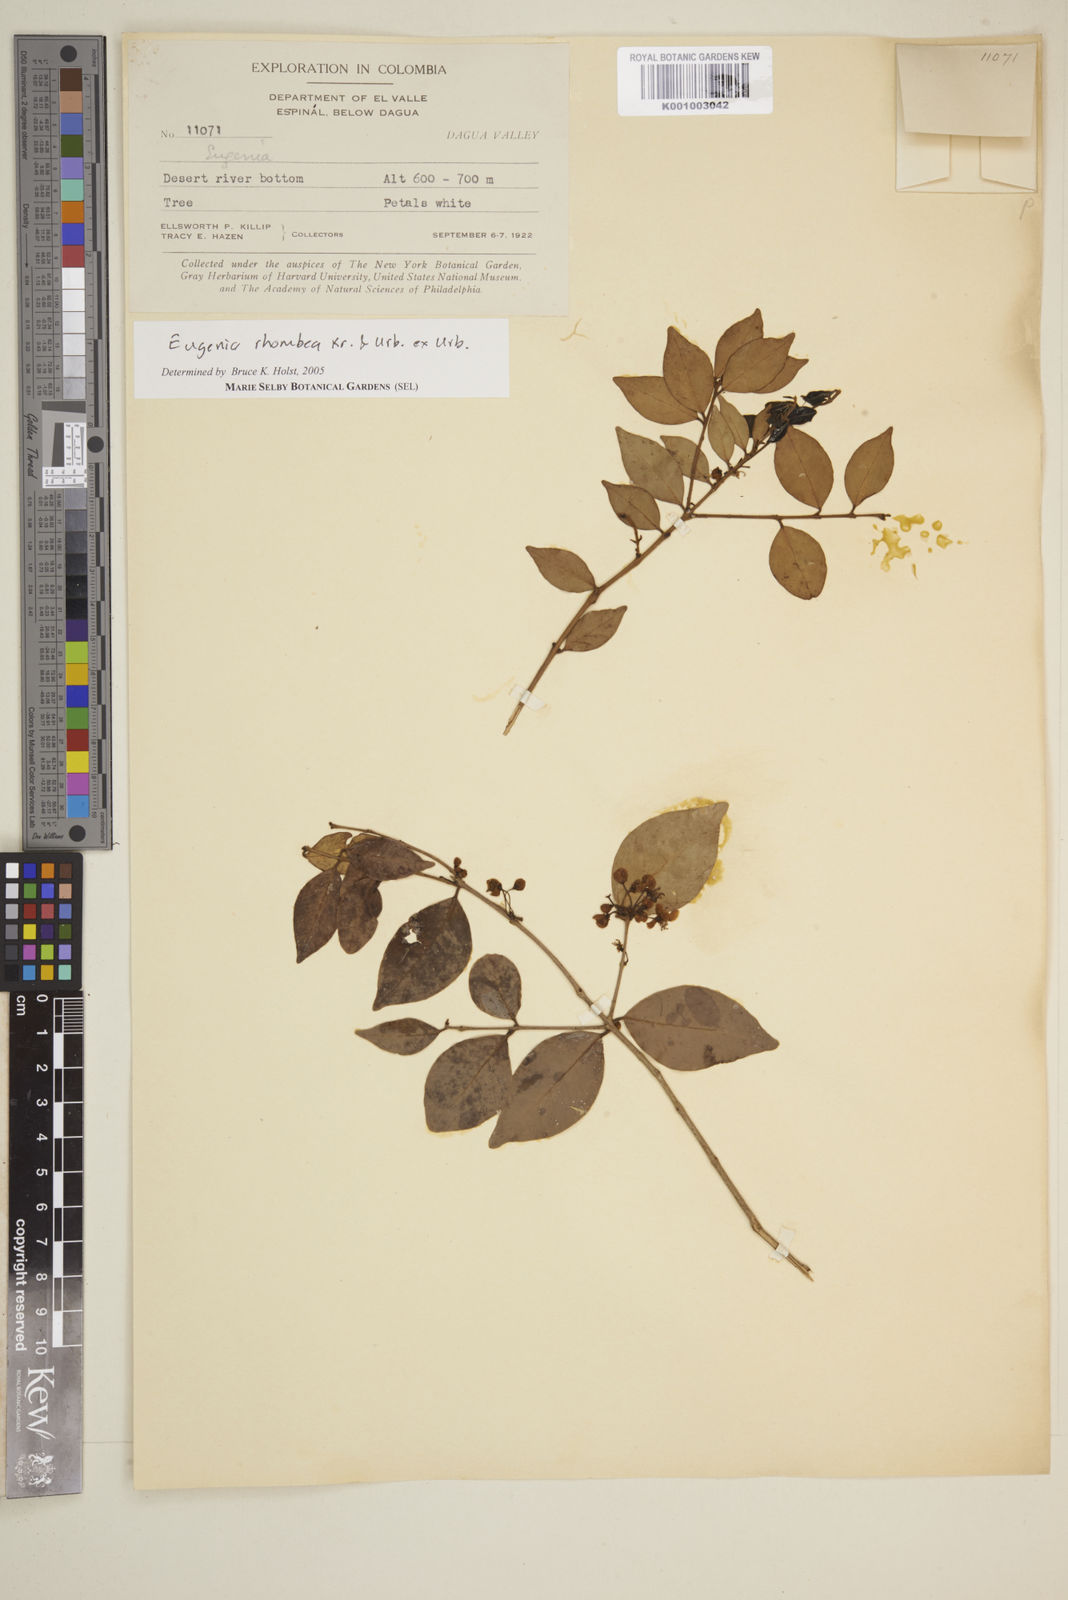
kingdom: Plantae
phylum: Tracheophyta
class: Magnoliopsida
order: Myrtales
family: Myrtaceae
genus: Eugenia
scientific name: Eugenia rhombea
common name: Pigeon berry
